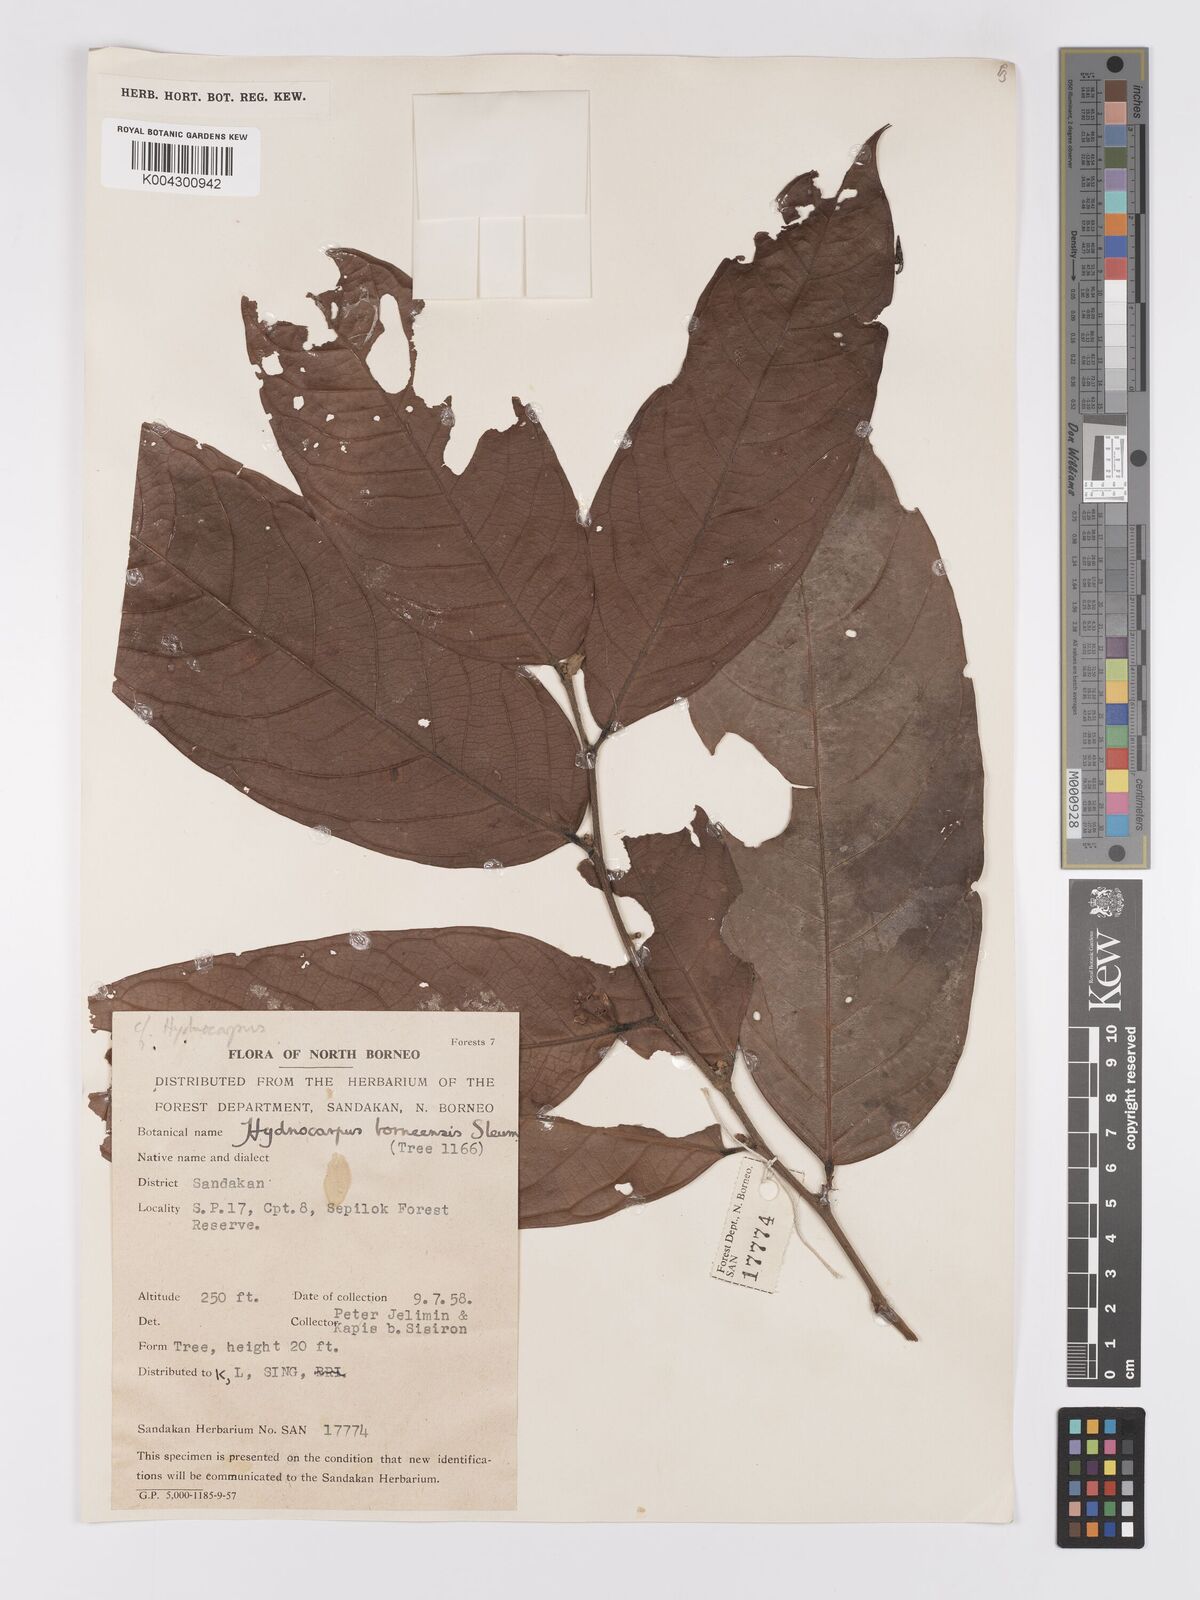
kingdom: Plantae
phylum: Tracheophyta
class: Magnoliopsida
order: Malpighiales
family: Achariaceae
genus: Hydnocarpus
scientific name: Hydnocarpus borneensis
